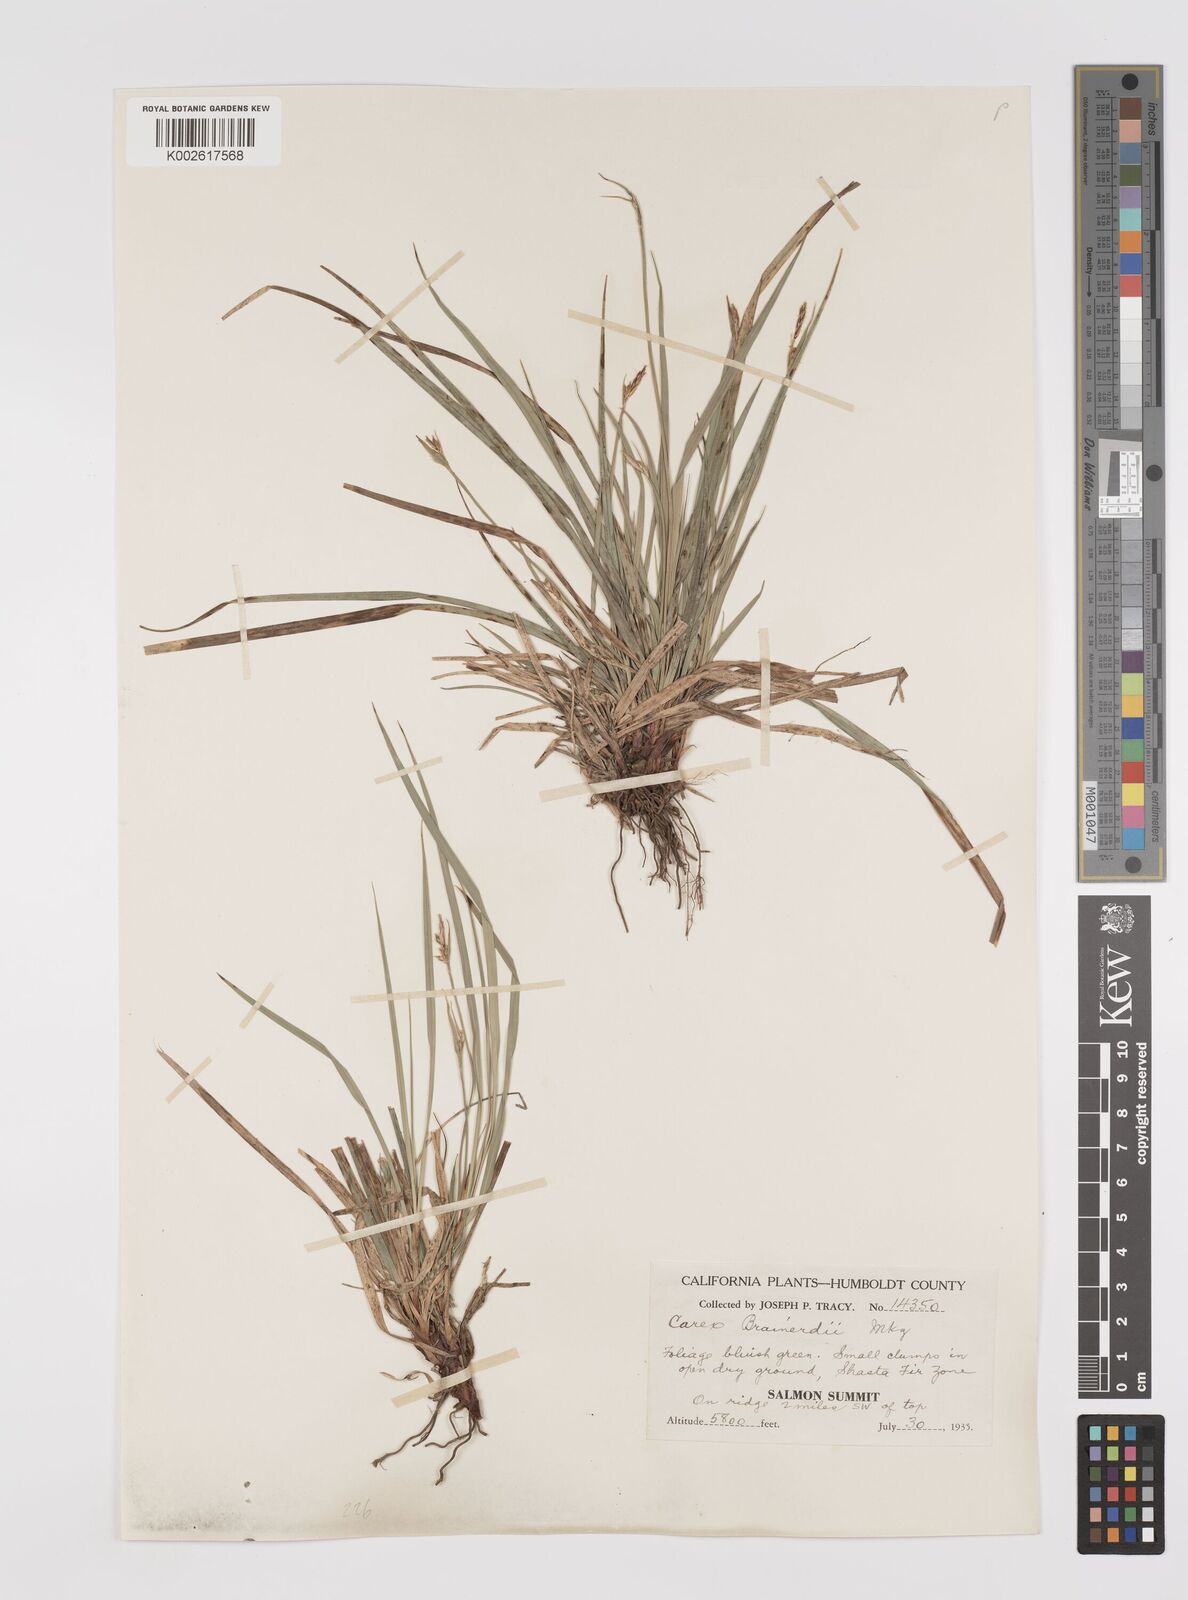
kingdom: Plantae
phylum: Tracheophyta
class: Liliopsida
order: Poales
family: Cyperaceae
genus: Carex
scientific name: Carex brainerdii
